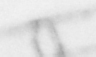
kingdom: Animalia
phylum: Chordata
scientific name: Chordata
